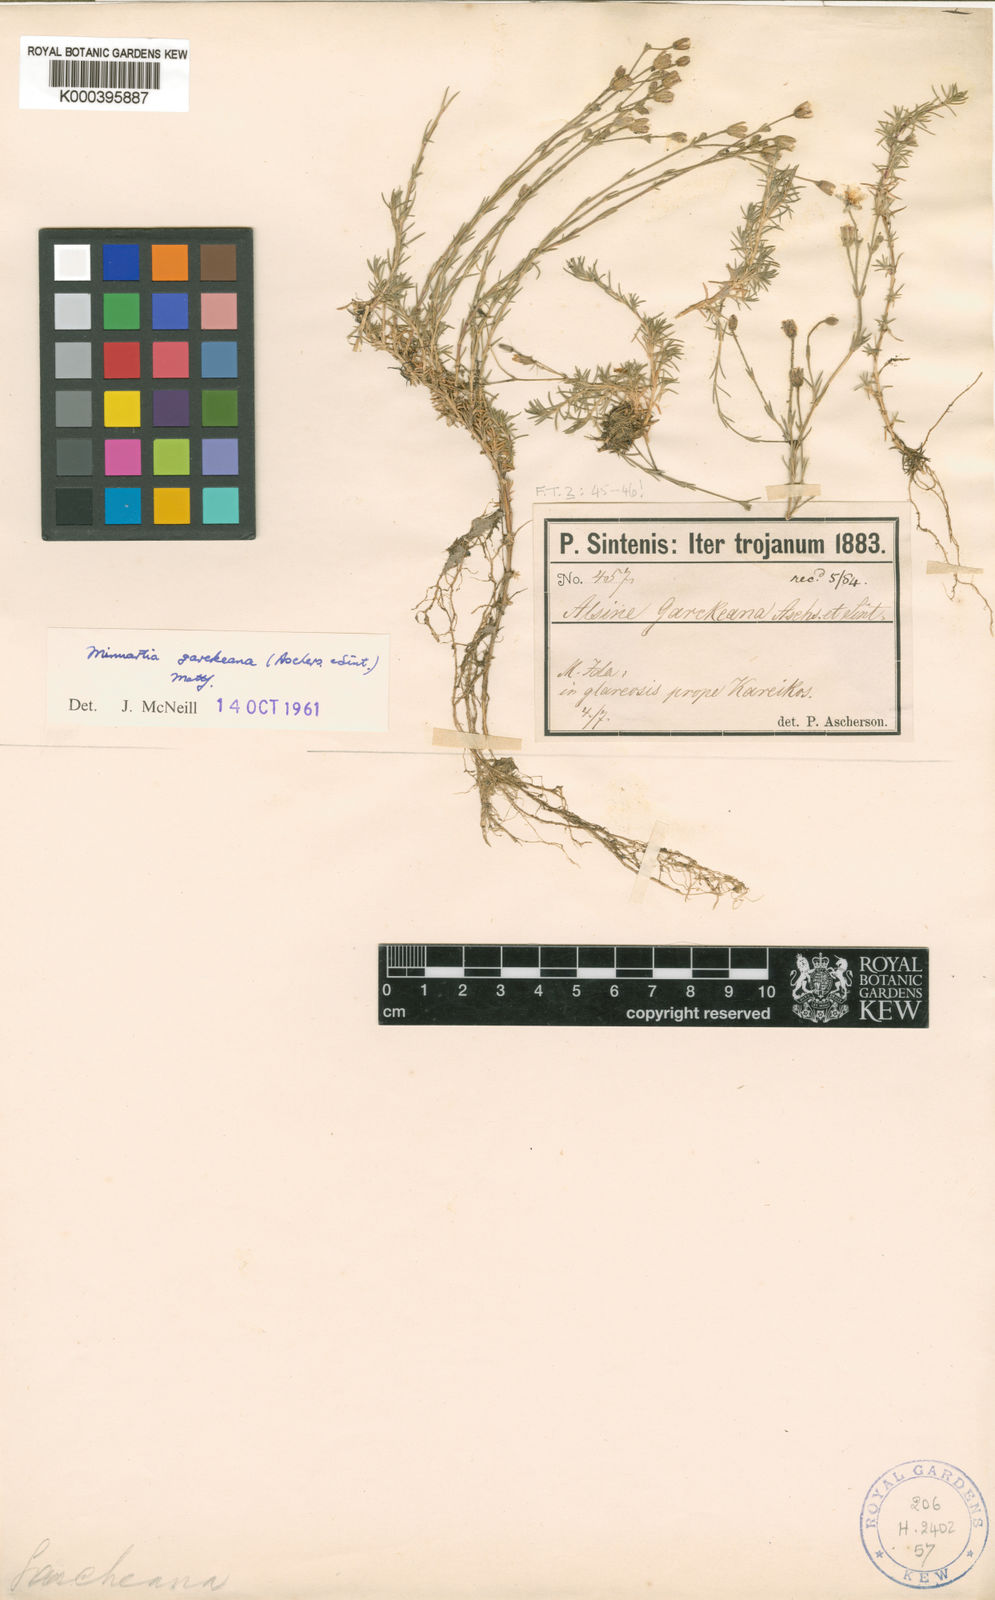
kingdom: Plantae
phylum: Tracheophyta
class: Magnoliopsida
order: Caryophyllales
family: Caryophyllaceae
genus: Cherleria
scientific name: Cherleria garckeana
